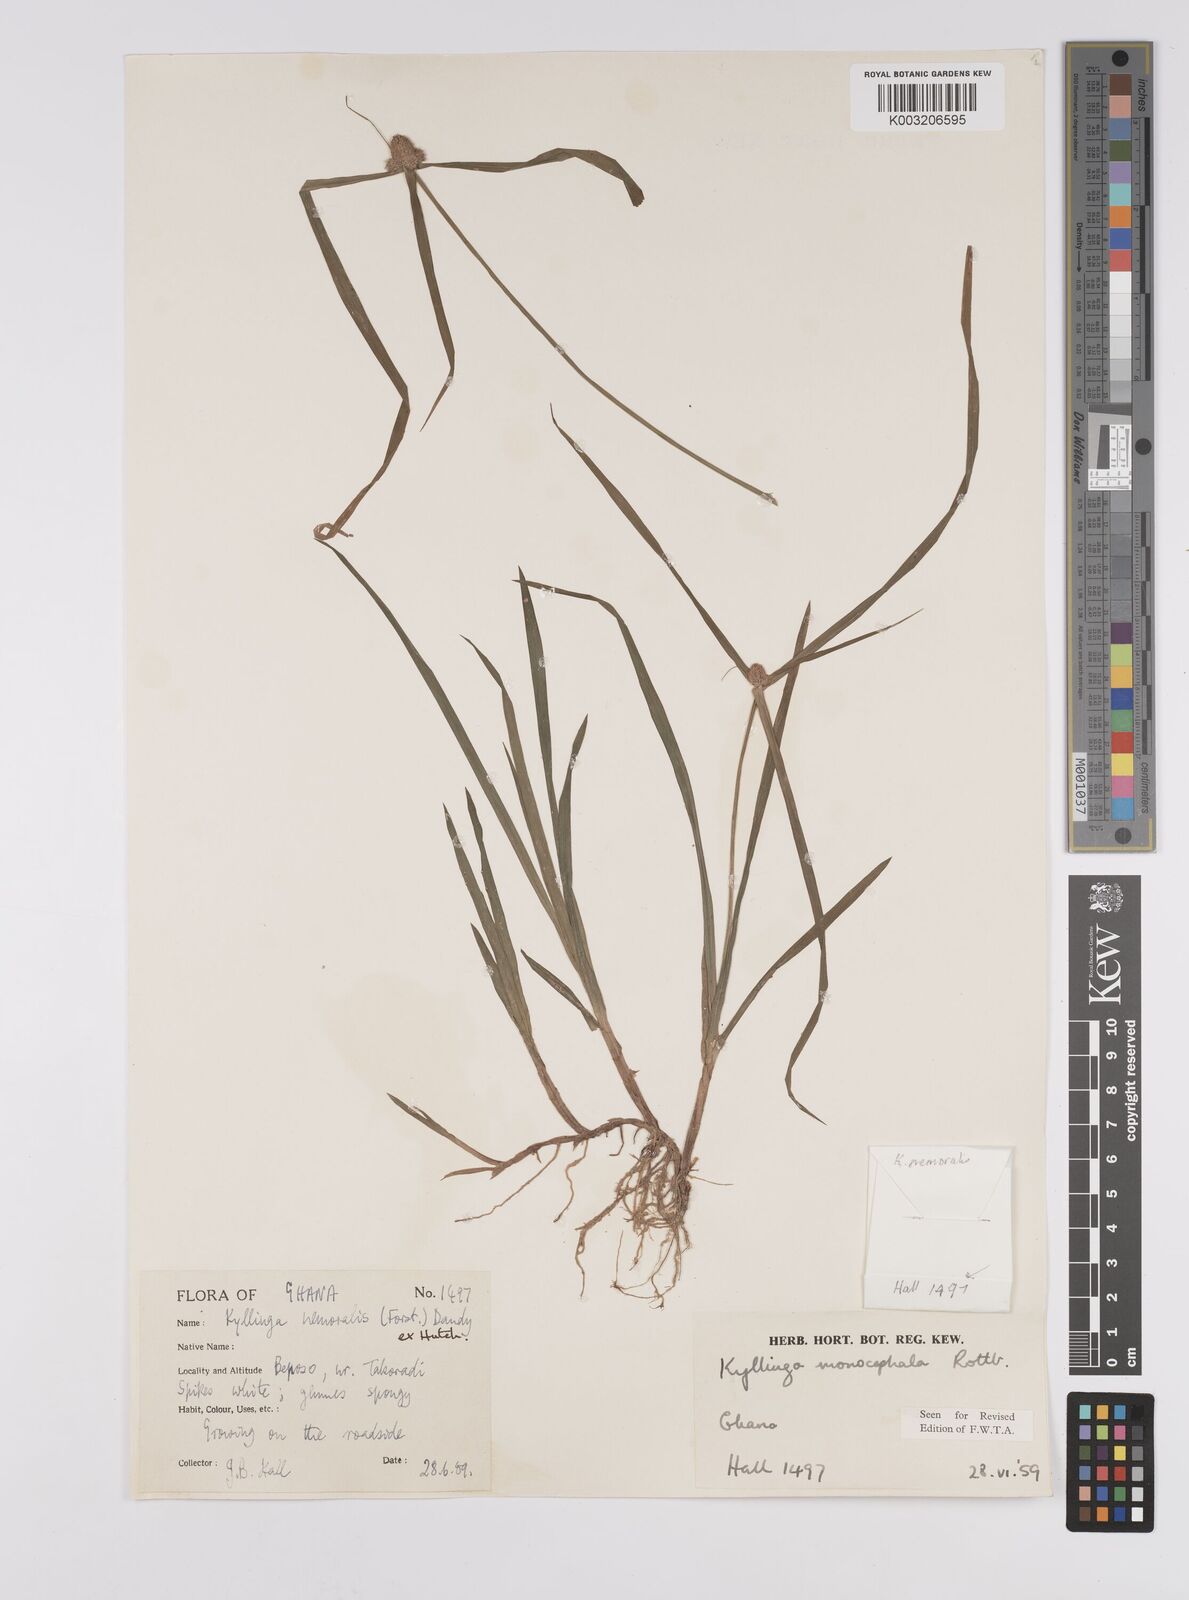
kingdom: Plantae
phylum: Tracheophyta
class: Liliopsida
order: Poales
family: Cyperaceae
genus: Cyperus
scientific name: Cyperus nemoralis
